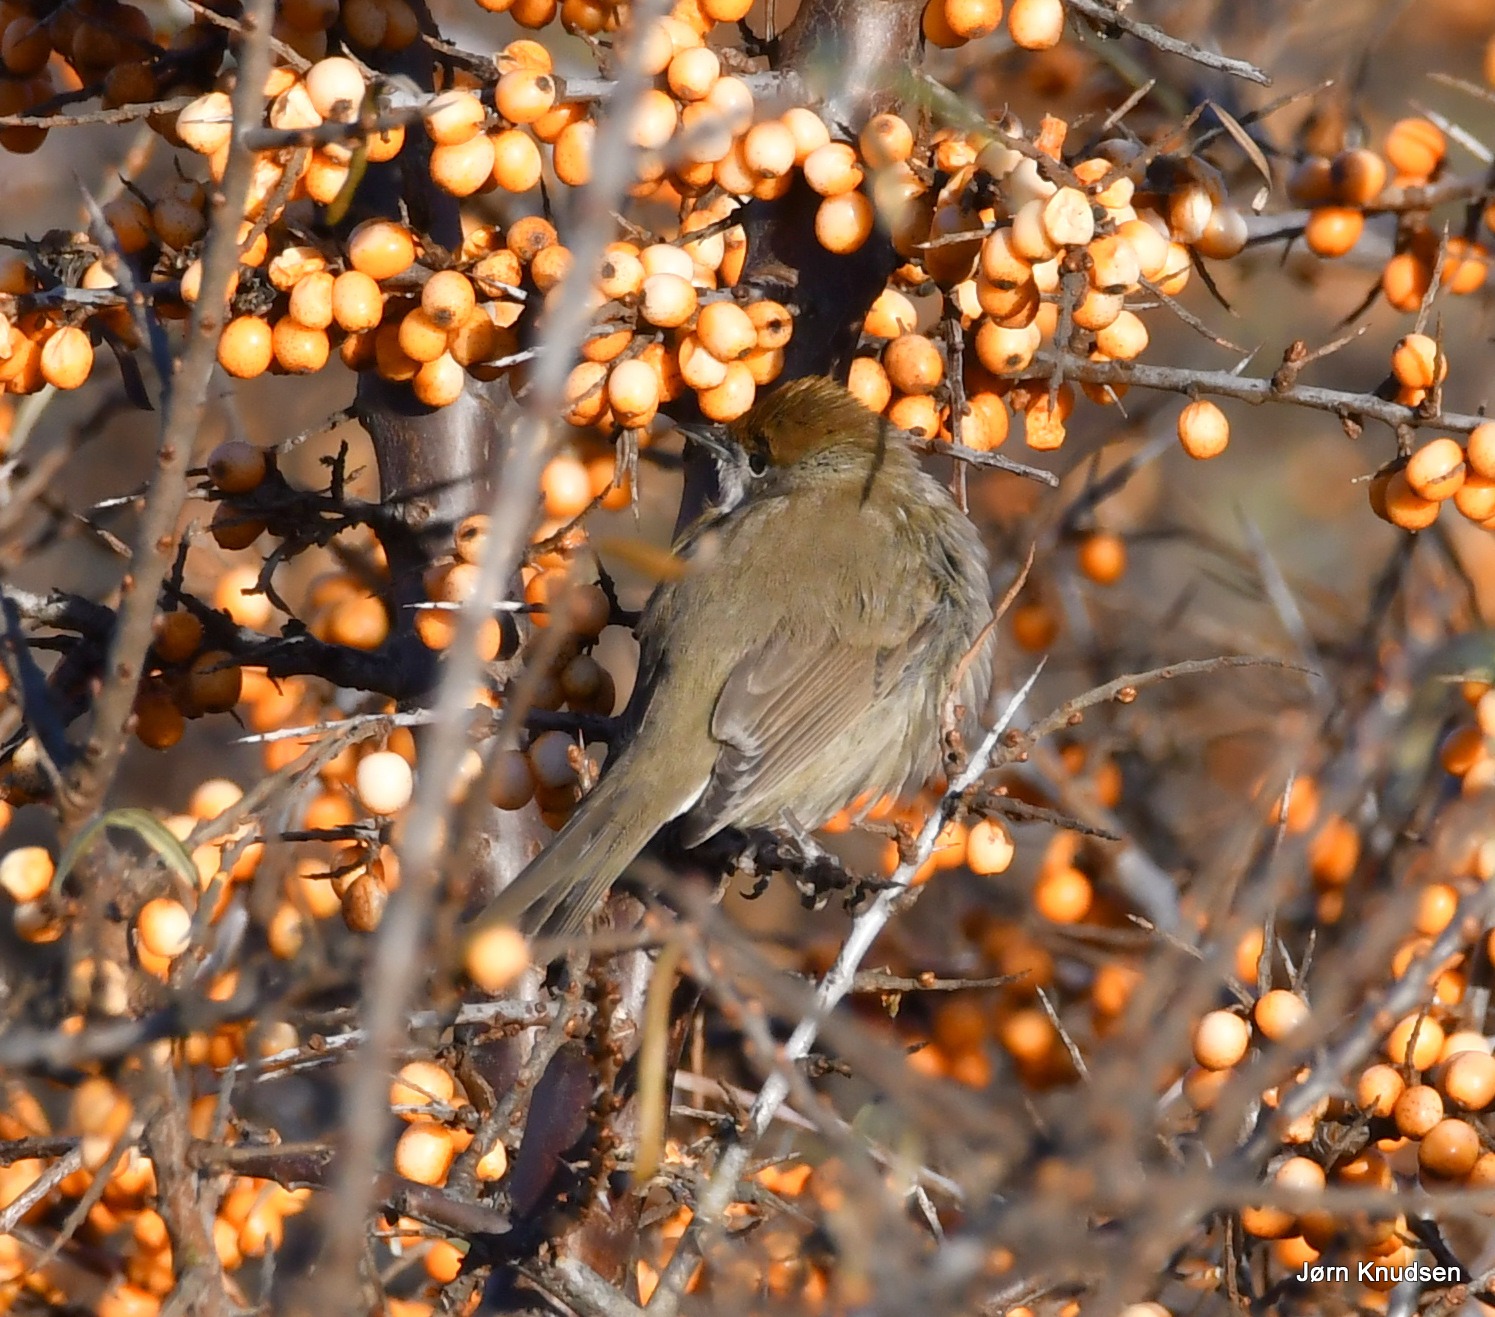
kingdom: Animalia
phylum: Chordata
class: Aves
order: Passeriformes
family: Sylviidae
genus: Sylvia
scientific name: Sylvia atricapilla
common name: Munk
